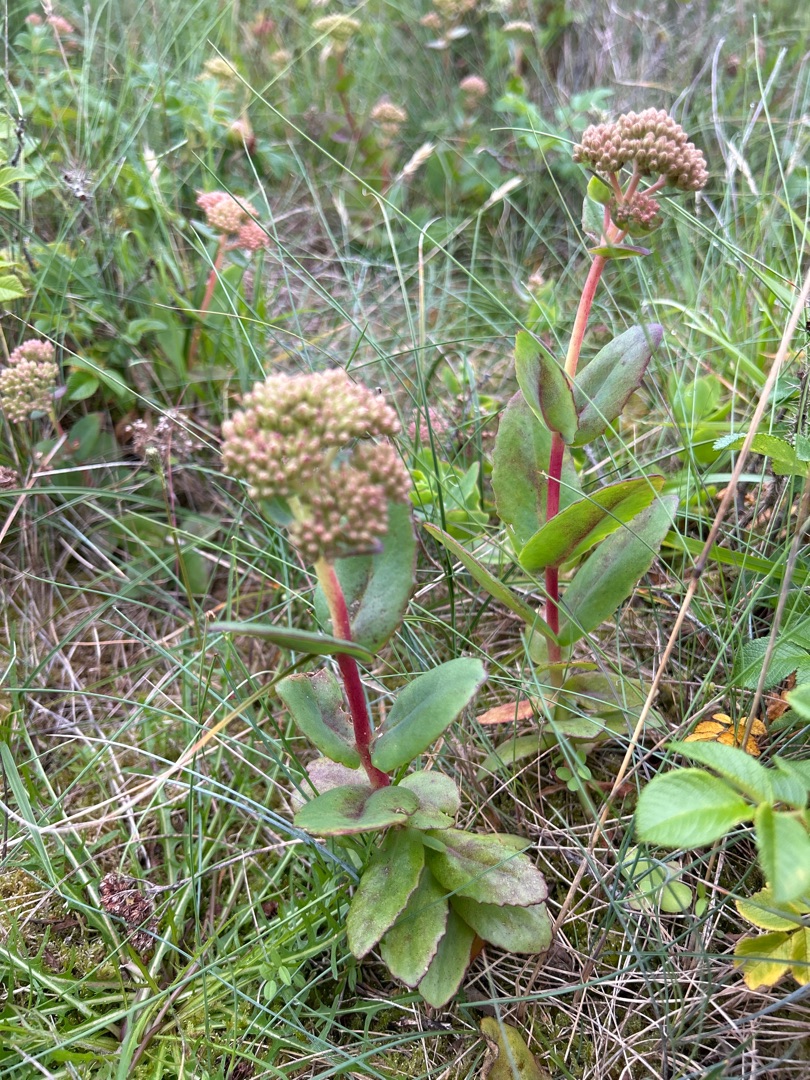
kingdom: Plantae
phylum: Tracheophyta
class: Magnoliopsida
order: Saxifragales
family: Crassulaceae
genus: Hylotelephium
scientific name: Hylotelephium maximum
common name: Almindelig sankthansurt
